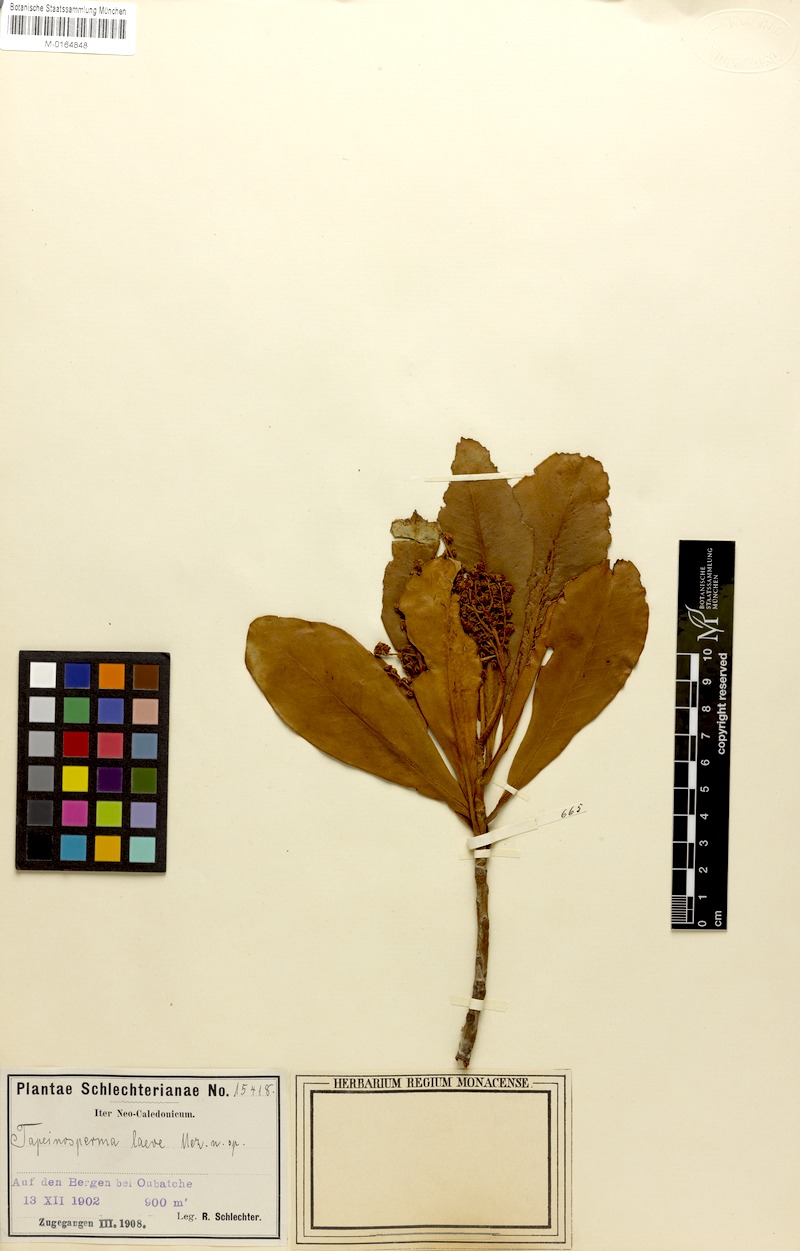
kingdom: Plantae
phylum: Tracheophyta
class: Magnoliopsida
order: Ericales
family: Primulaceae
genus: Tapeinosperma
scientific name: Tapeinosperma laeve
